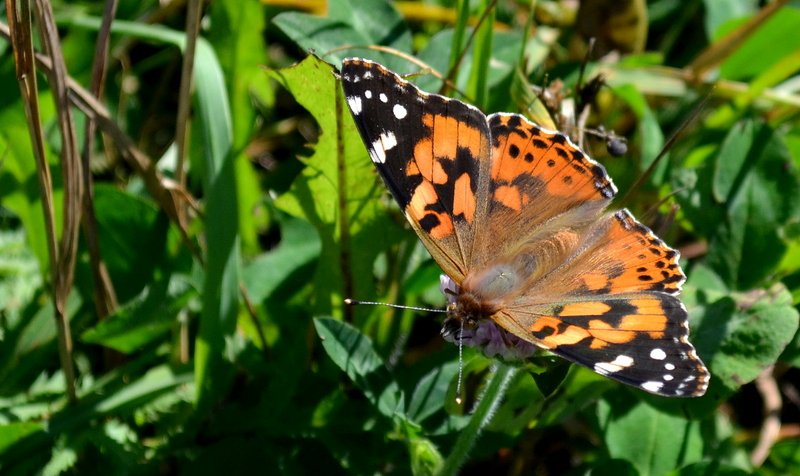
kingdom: Animalia
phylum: Arthropoda
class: Insecta
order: Lepidoptera
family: Nymphalidae
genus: Vanessa
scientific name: Vanessa cardui
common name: Painted Lady
